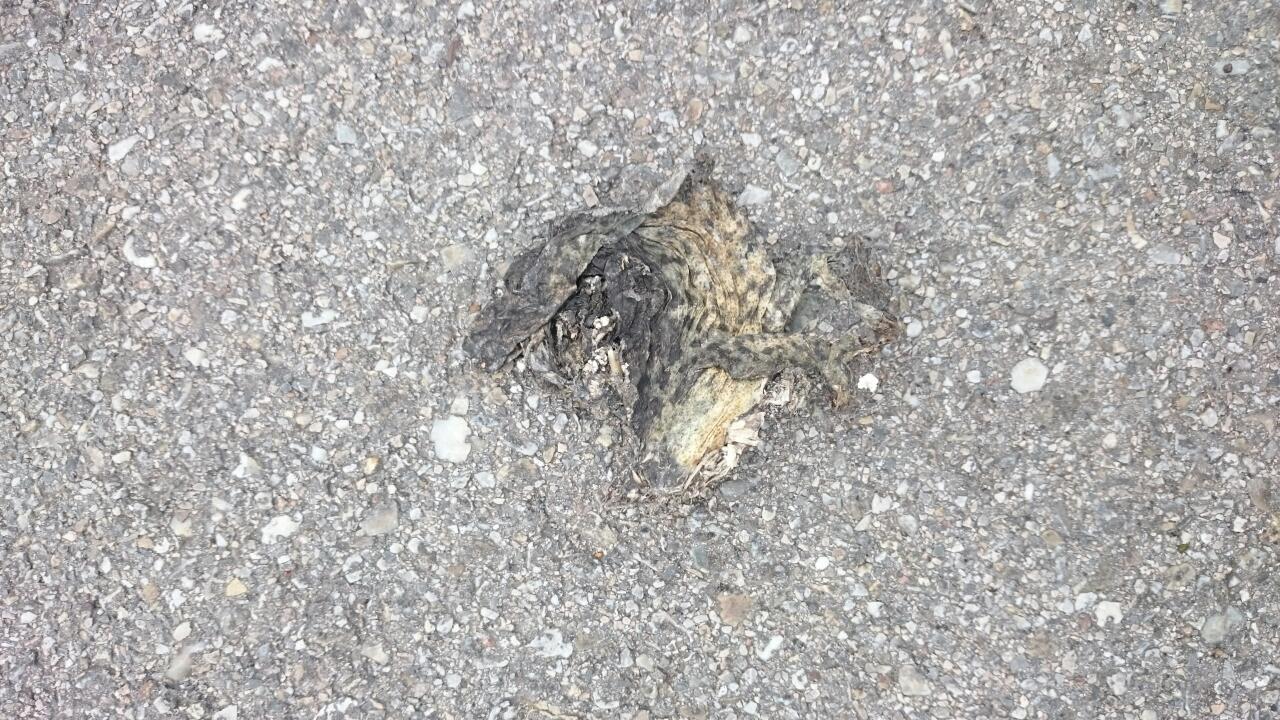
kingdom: Animalia
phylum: Chordata
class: Amphibia
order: Anura
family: Bufonidae
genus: Bufo
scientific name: Bufo bufo
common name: Common toad
